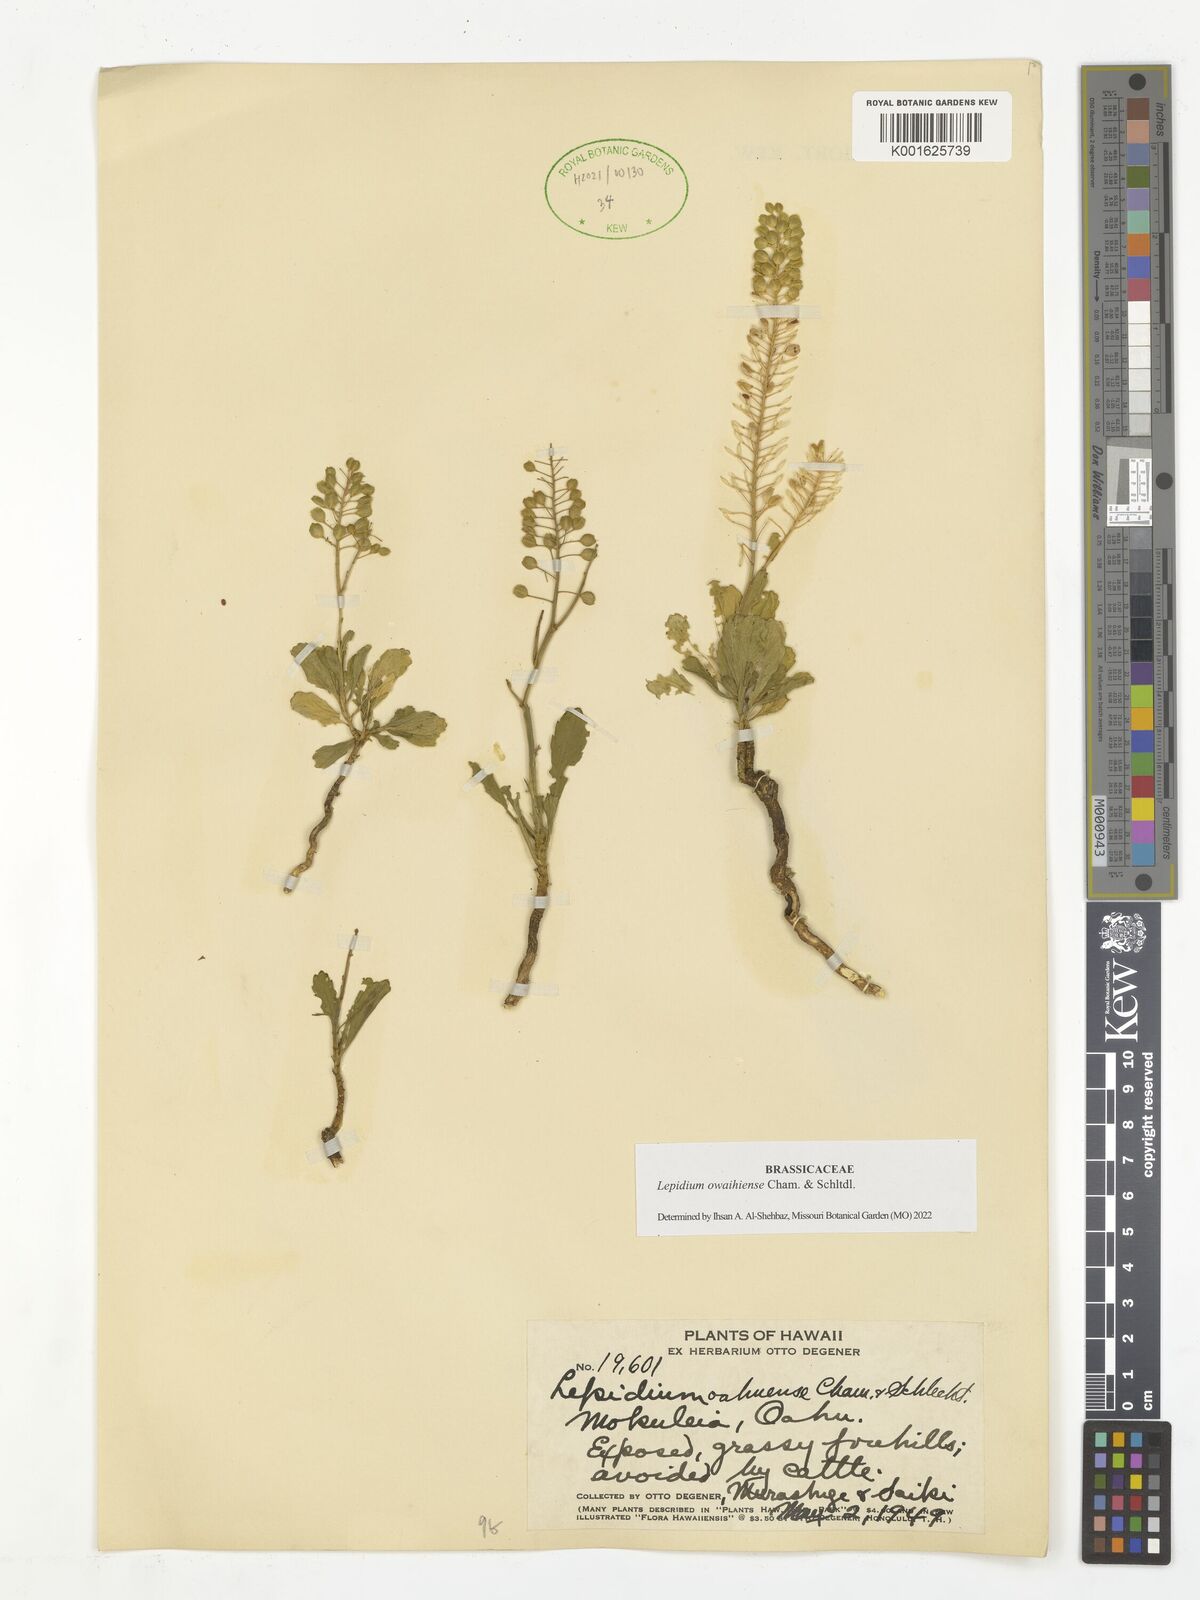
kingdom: Plantae
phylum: Tracheophyta
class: Magnoliopsida
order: Brassicales
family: Brassicaceae
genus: Lepidium
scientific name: Lepidium owaihiense
